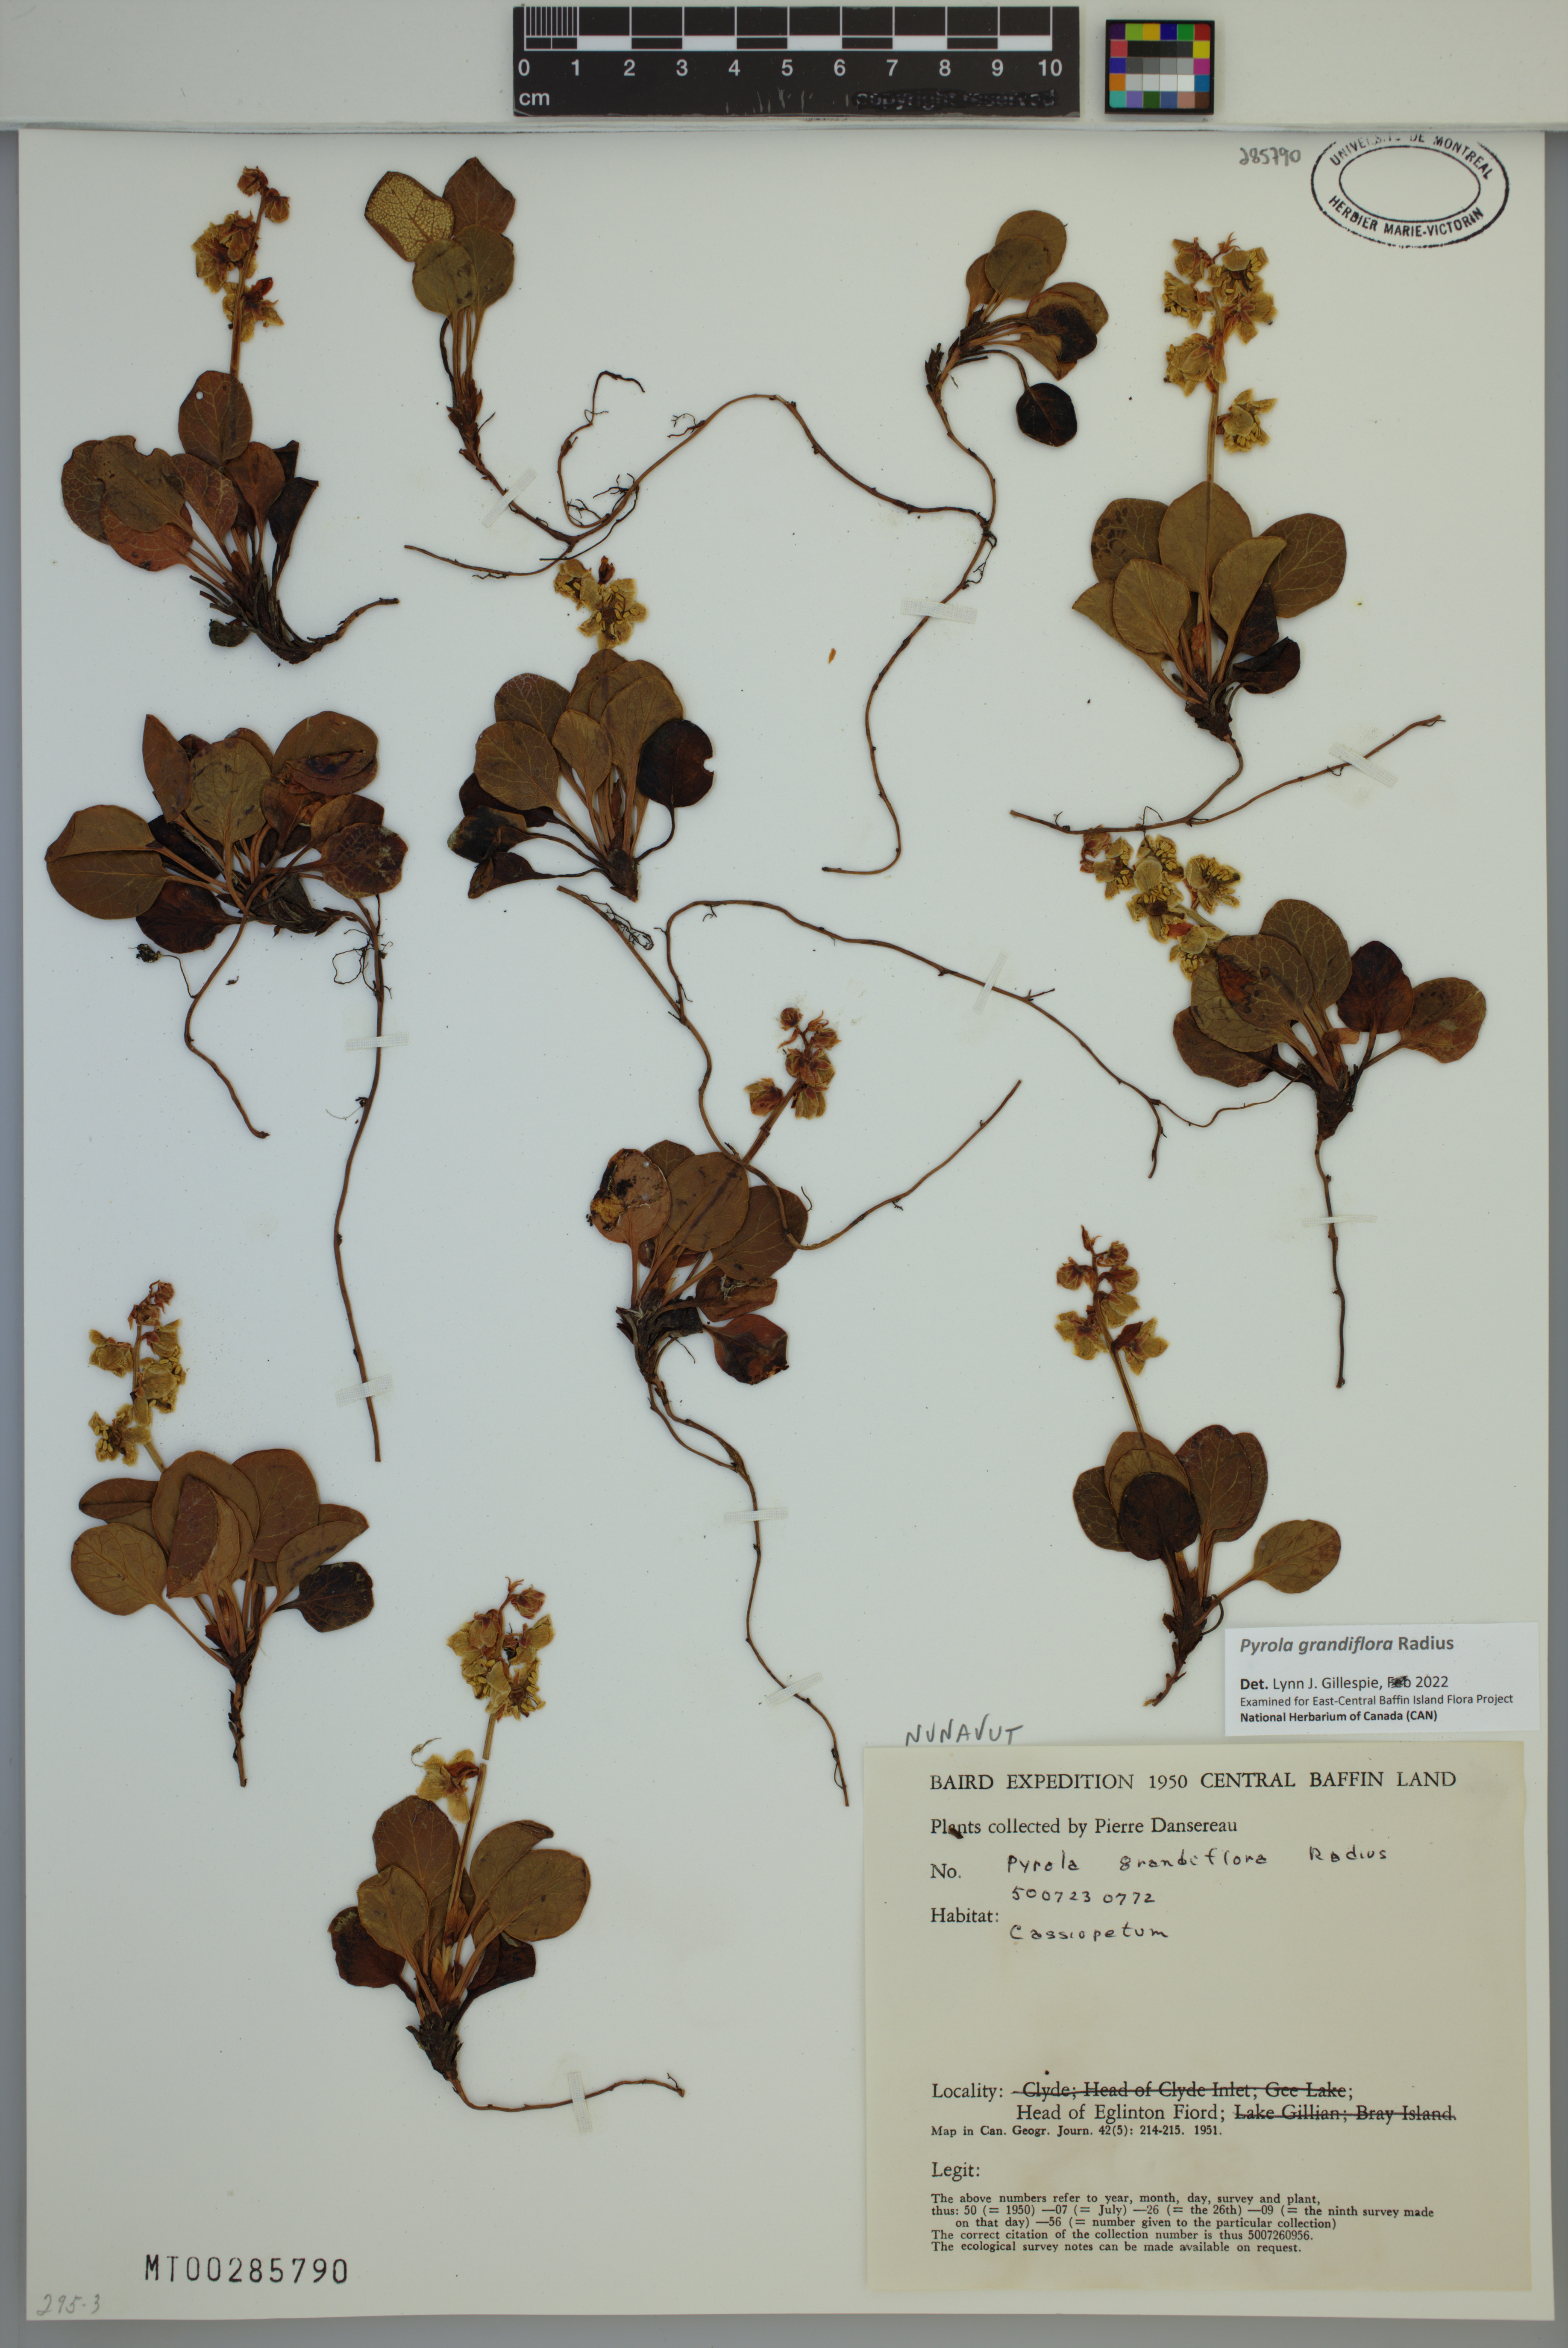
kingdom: Plantae
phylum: Tracheophyta
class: Magnoliopsida
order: Ericales
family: Ericaceae
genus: Pyrola
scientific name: Pyrola grandiflora
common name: Arctic pyrola
